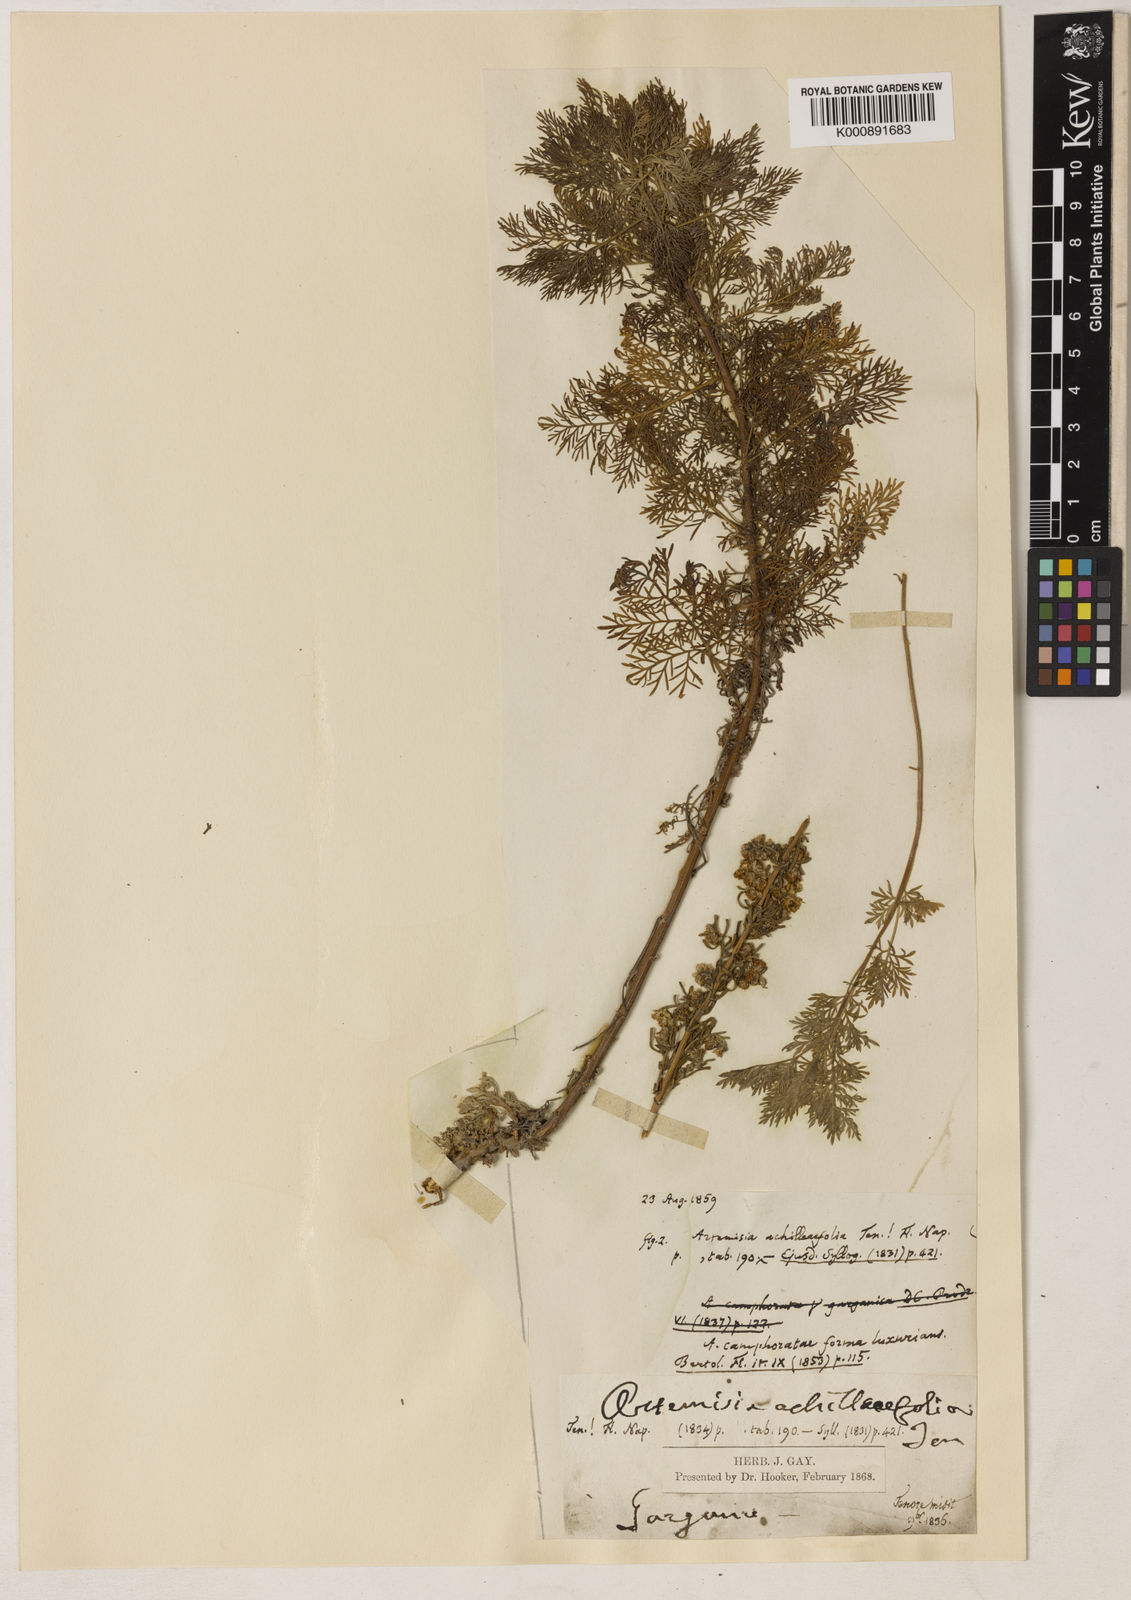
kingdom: Plantae
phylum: Tracheophyta
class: Magnoliopsida
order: Asterales
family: Asteraceae
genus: Artemisia
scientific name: Artemisia alba
